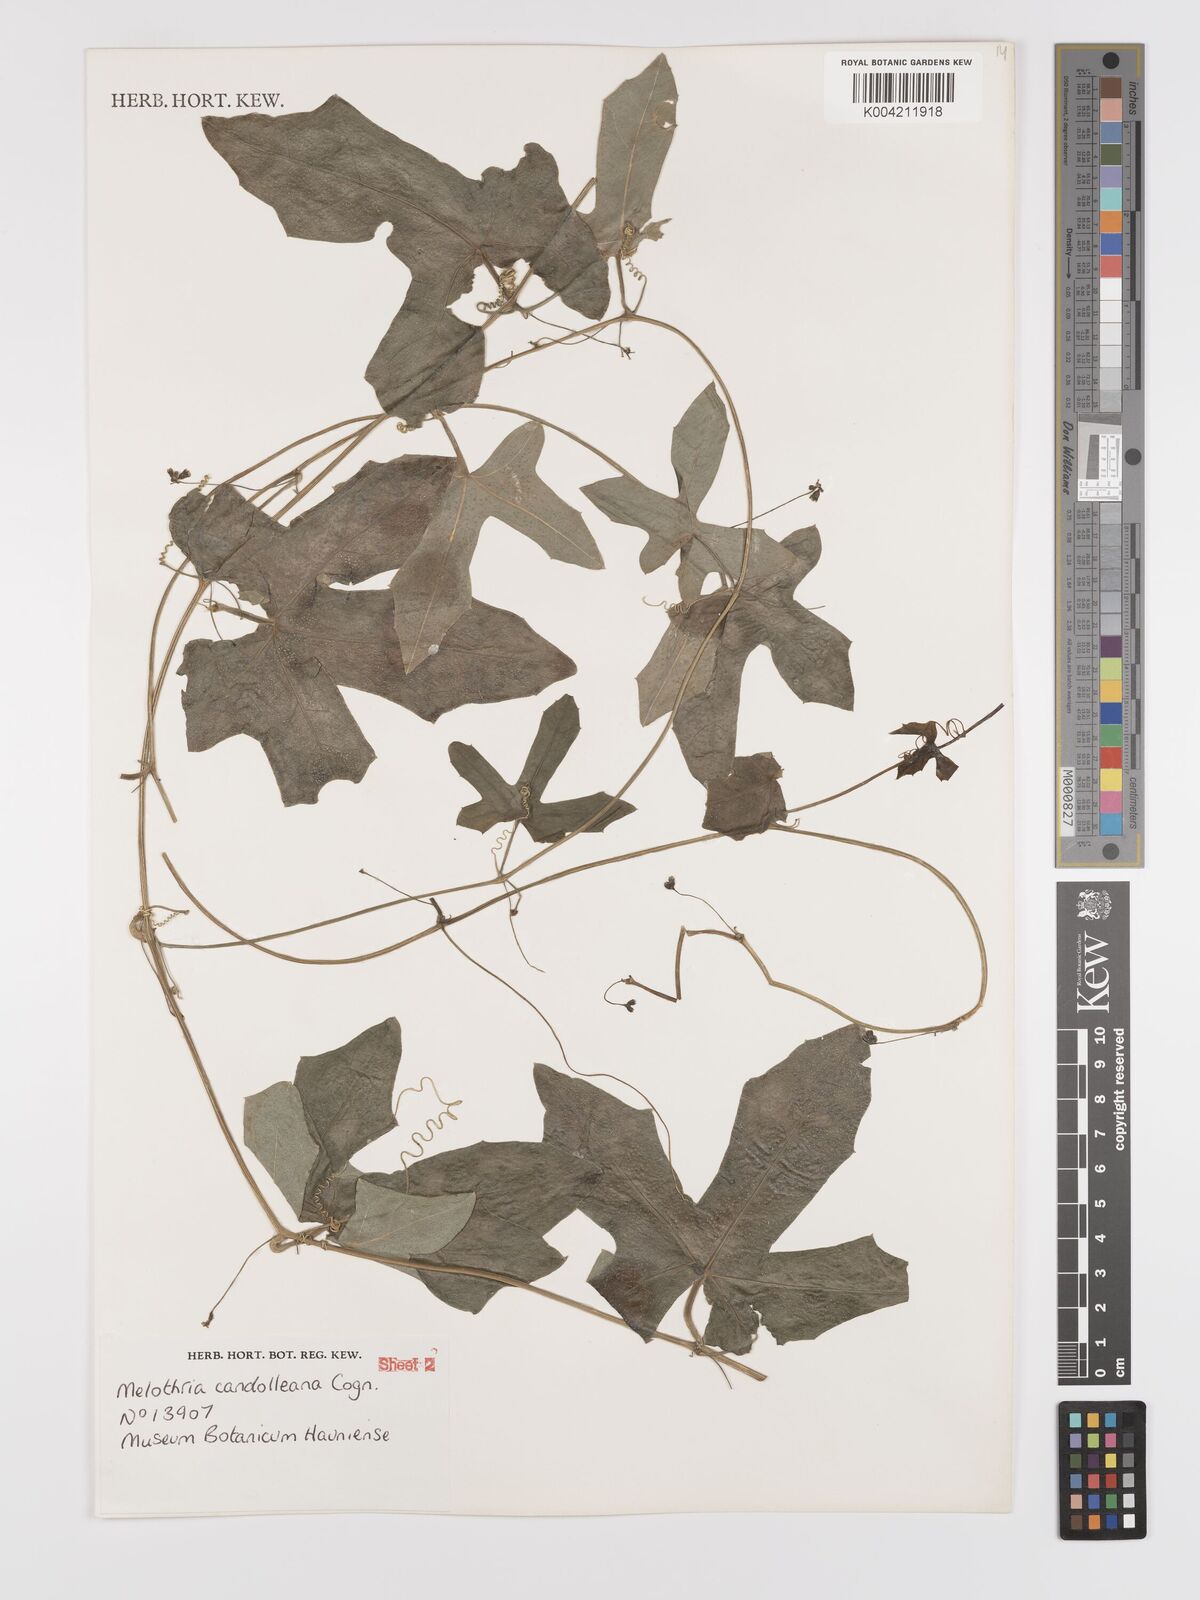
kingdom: Plantae
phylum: Tracheophyta
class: Magnoliopsida
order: Cucurbitales
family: Cucurbitaceae
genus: Melothria
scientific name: Melothria candolleana
